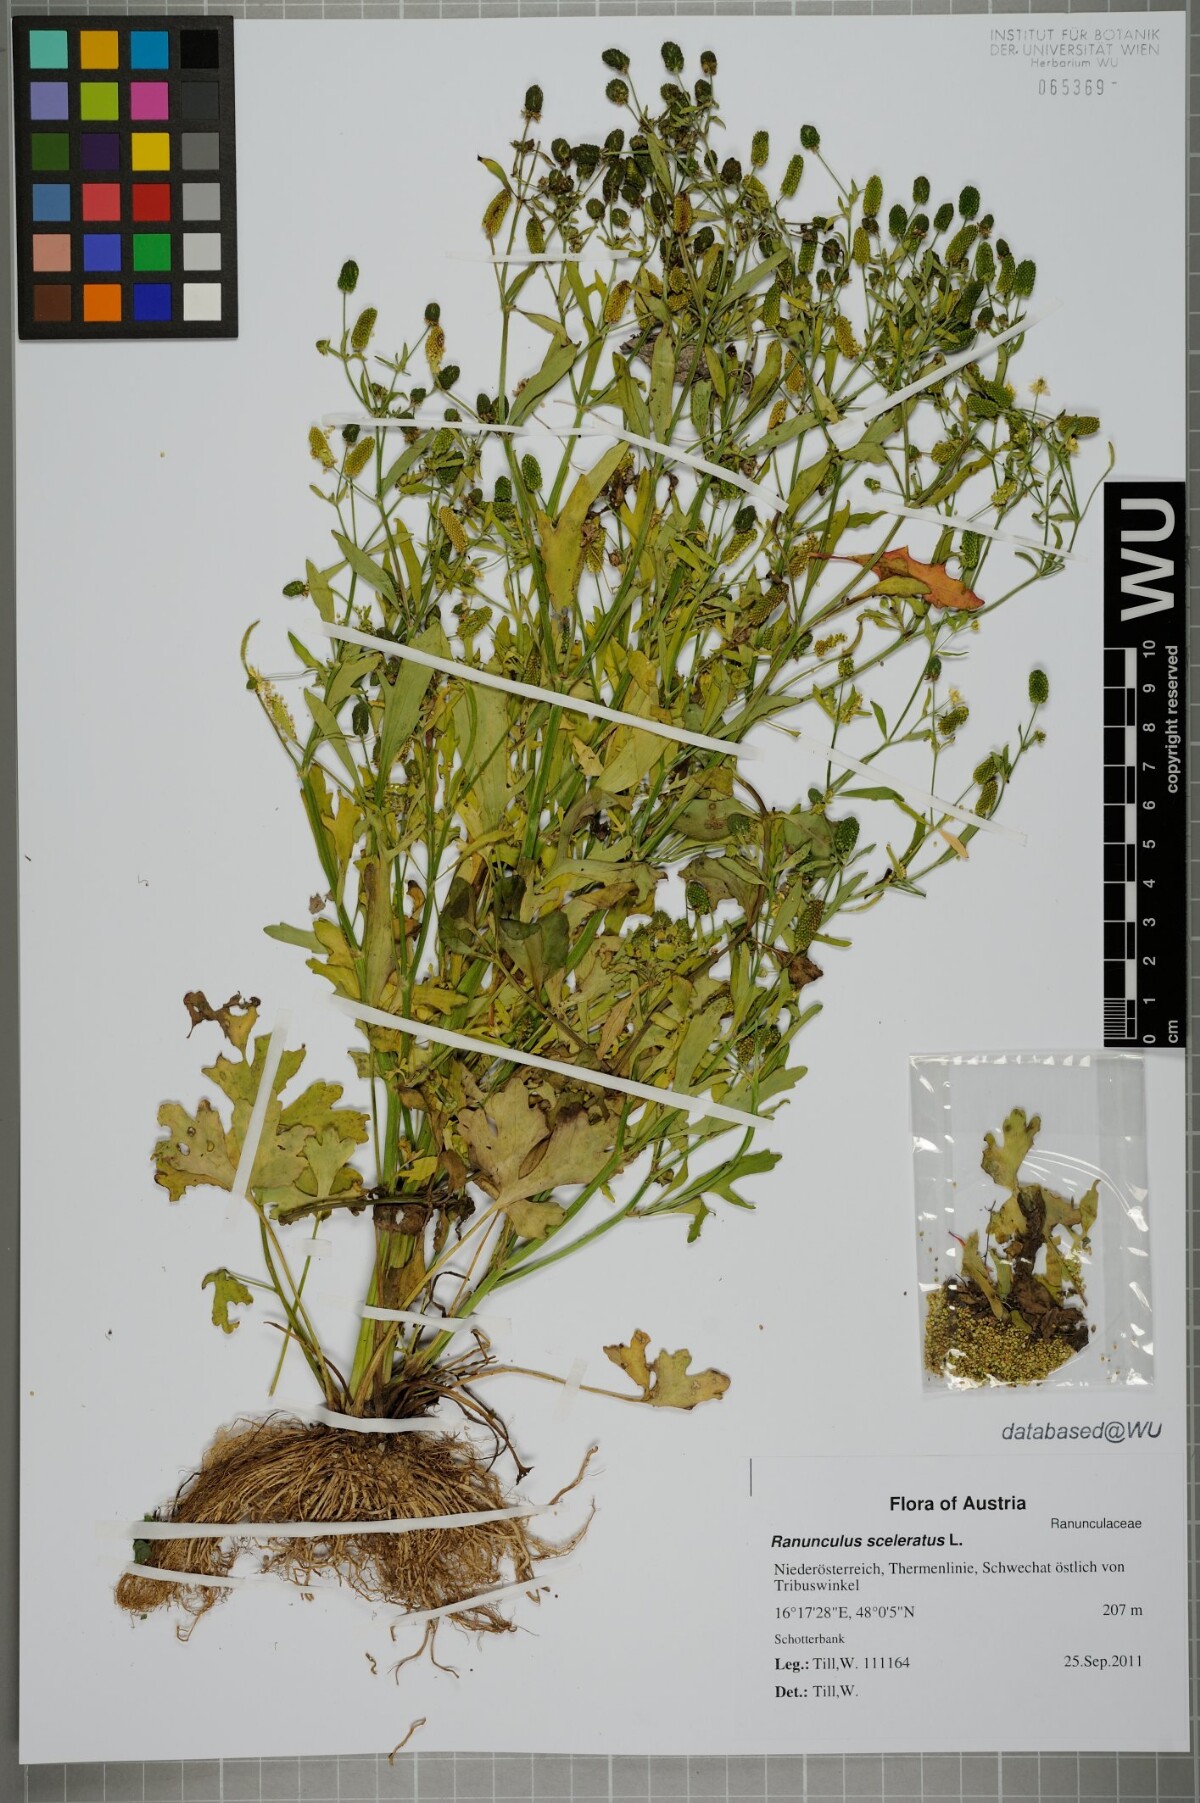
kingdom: Plantae
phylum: Tracheophyta
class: Magnoliopsida
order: Ranunculales
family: Ranunculaceae
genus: Ranunculus
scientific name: Ranunculus sceleratus
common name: Celery-leaved buttercup
